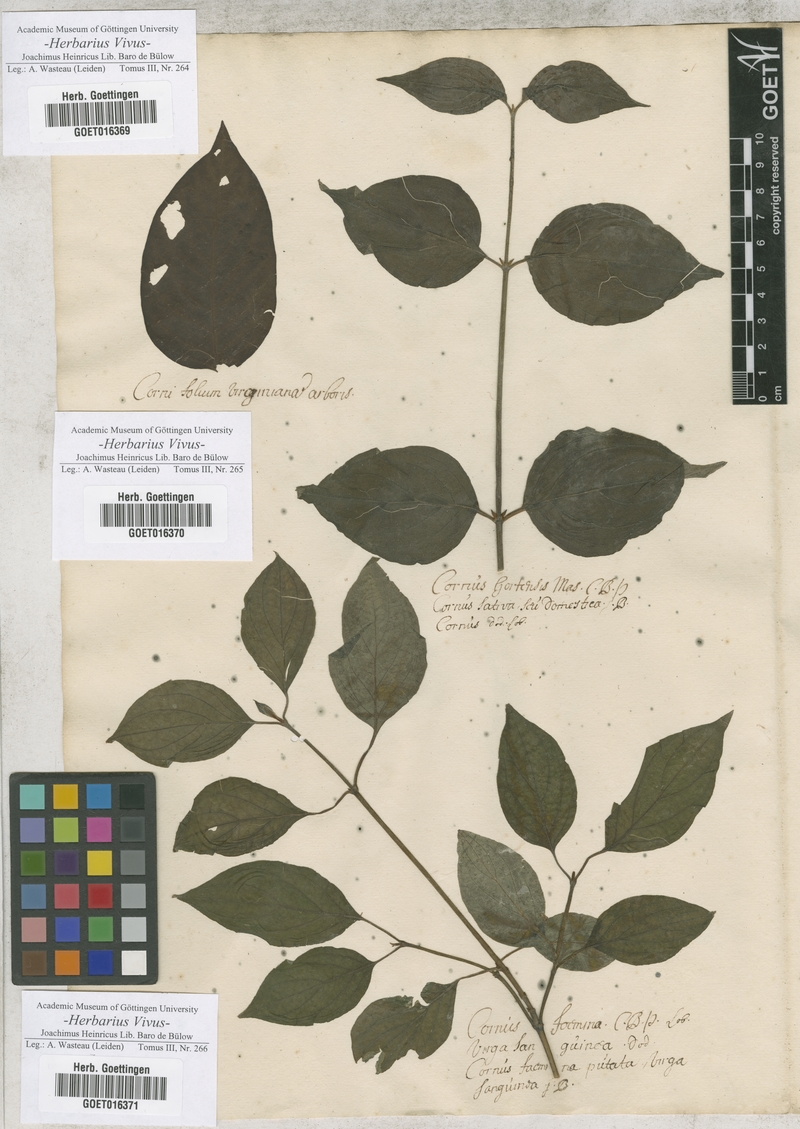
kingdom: Plantae
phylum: Tracheophyta
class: Magnoliopsida
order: Cornales
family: Cornaceae
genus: Cornus
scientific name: Cornus
